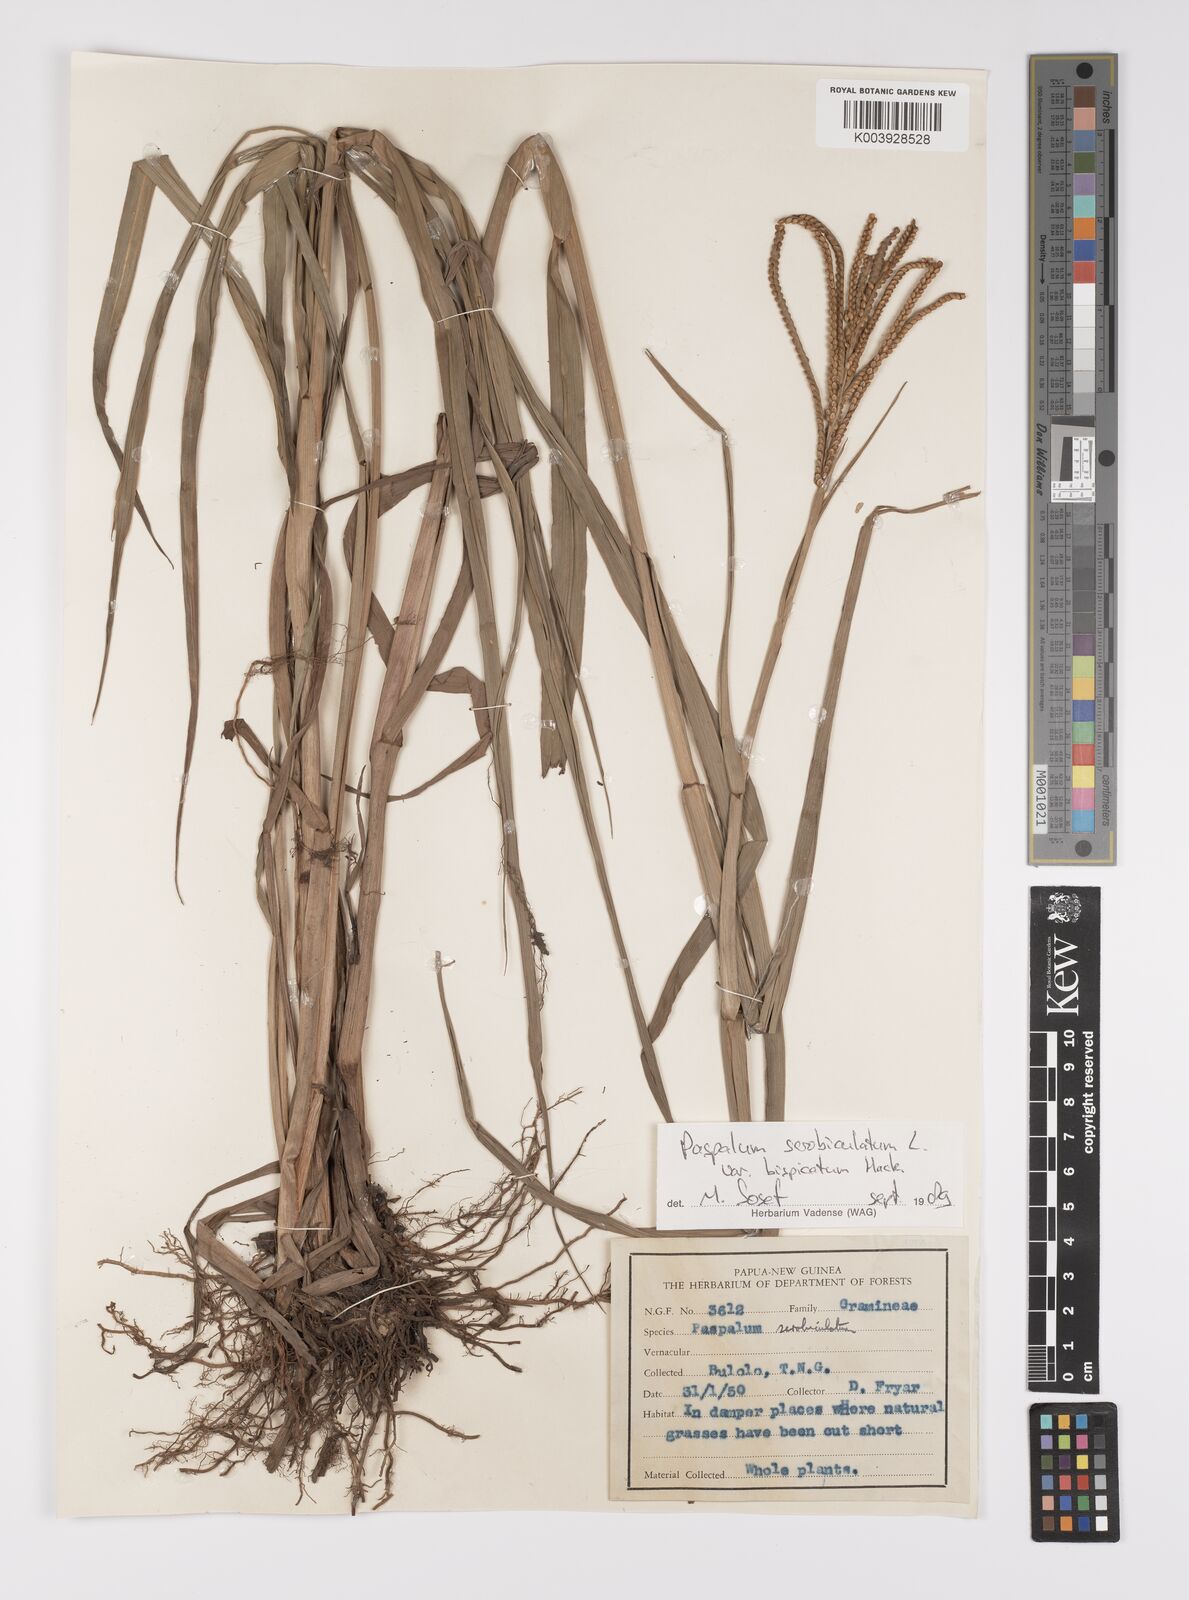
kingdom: Plantae
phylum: Tracheophyta
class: Liliopsida
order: Poales
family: Poaceae
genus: Paspalum
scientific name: Paspalum scrobiculatum
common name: Kodo millet
